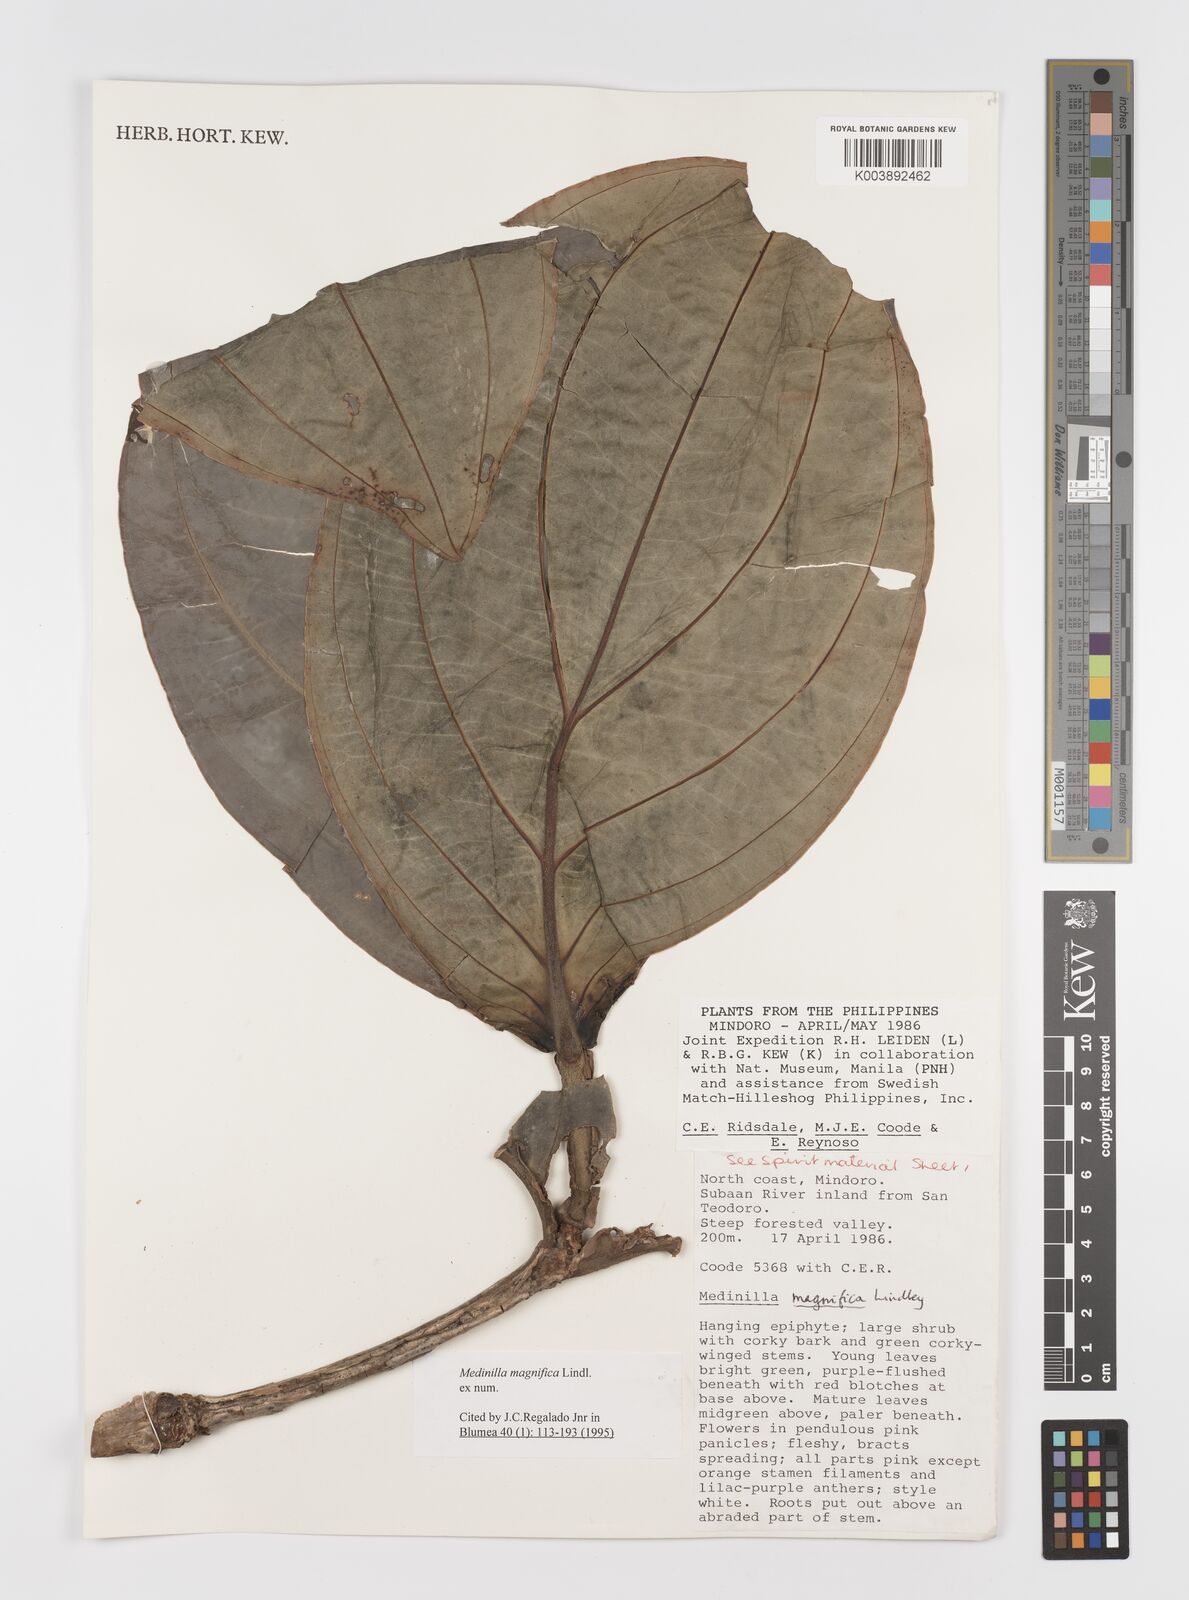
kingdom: Plantae
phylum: Tracheophyta
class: Magnoliopsida
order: Myrtales
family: Melastomataceae
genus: Medinilla
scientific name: Medinilla magnifica
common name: Showy medinilla
